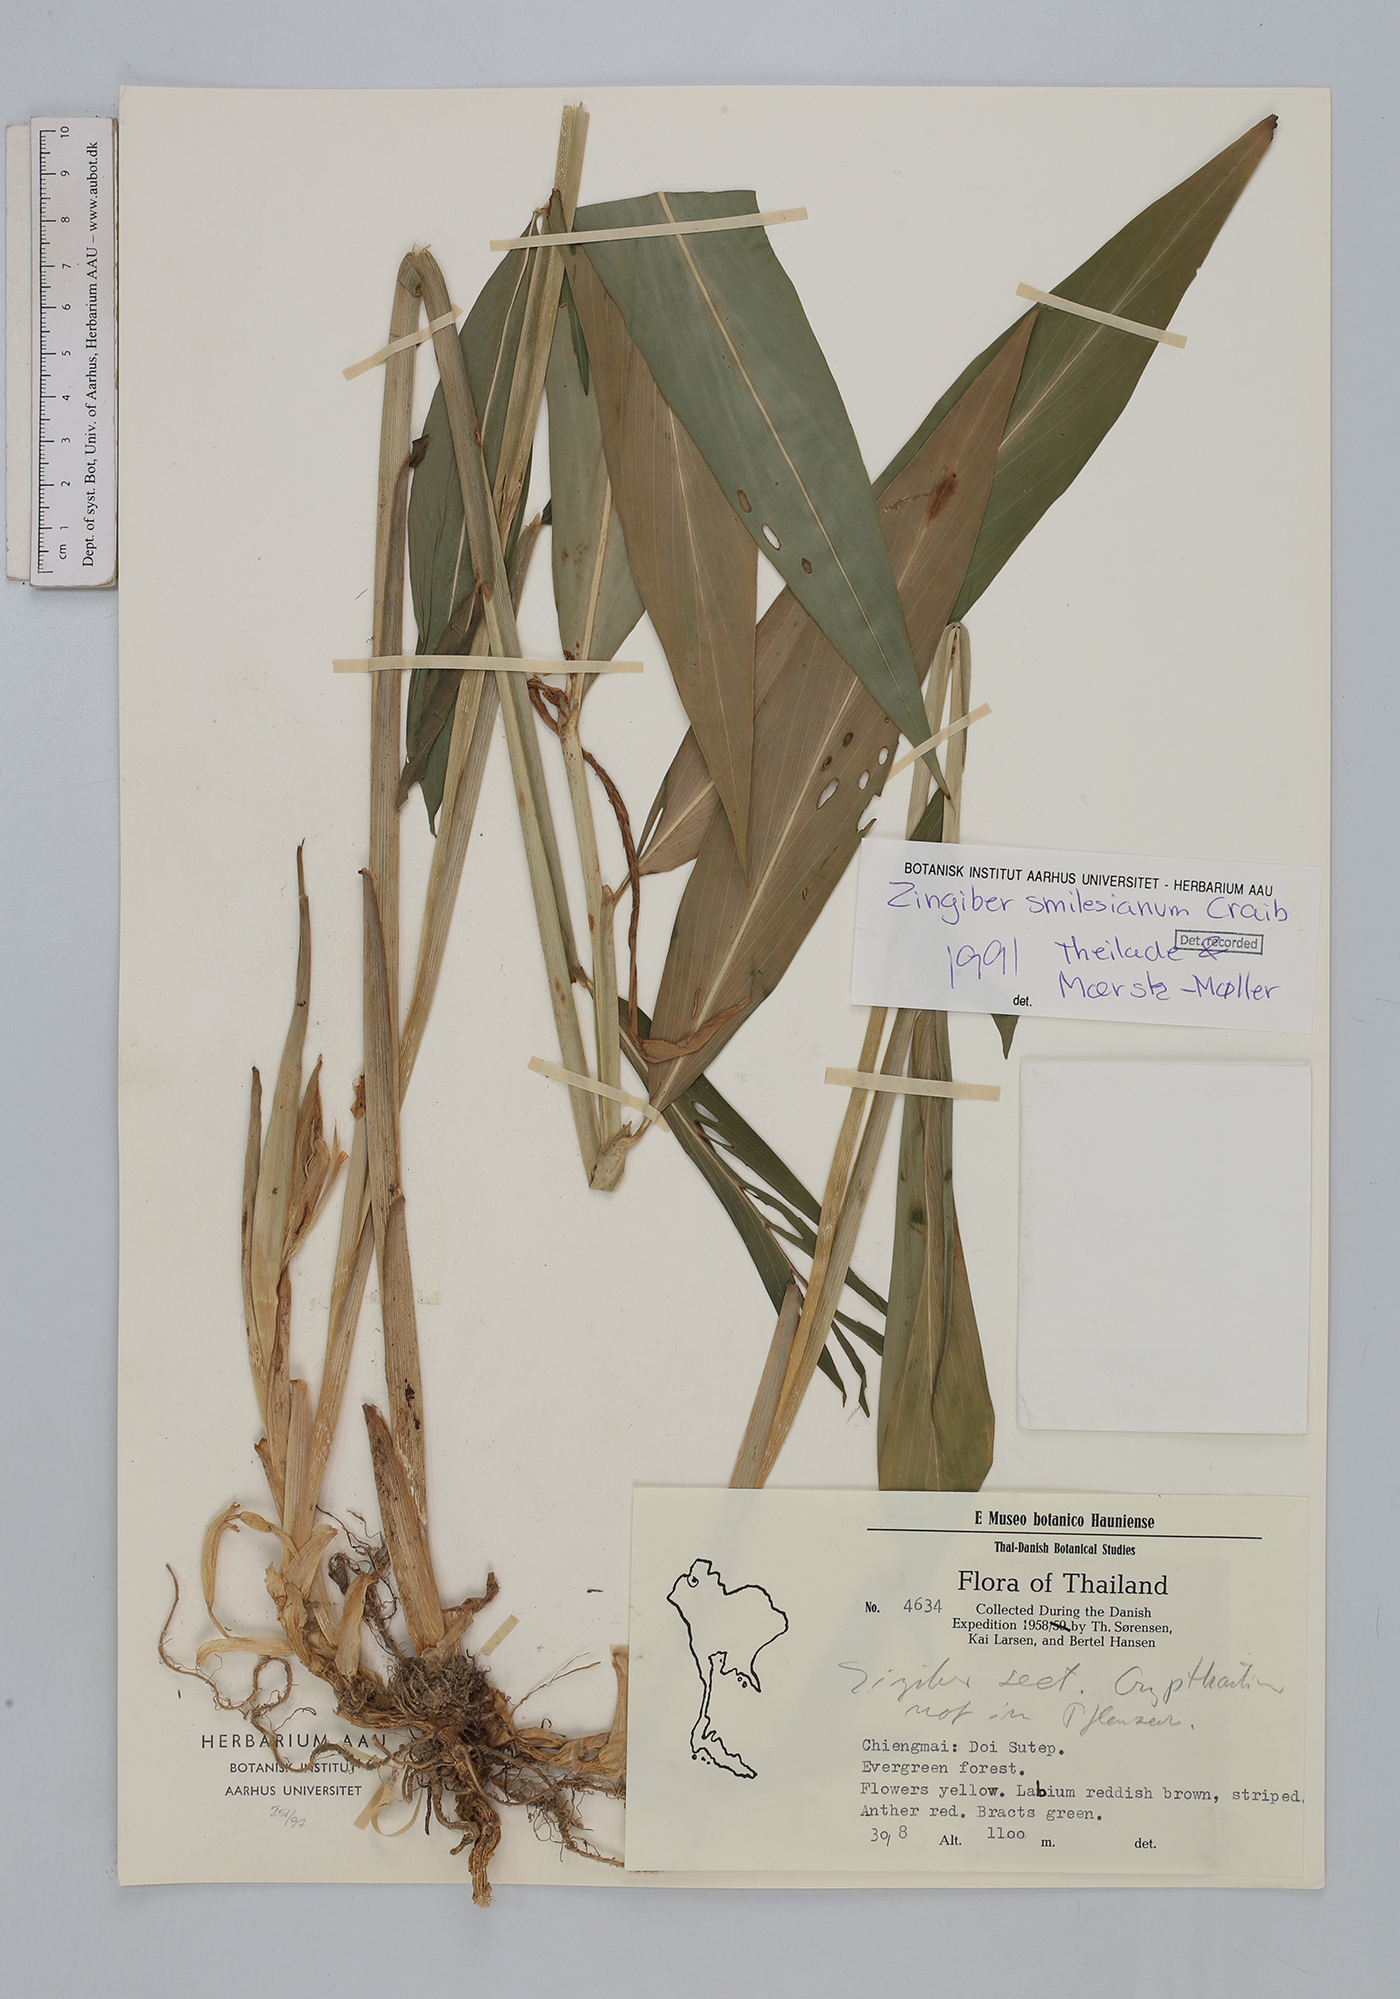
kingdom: Plantae
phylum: Tracheophyta
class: Liliopsida
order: Zingiberales
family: Zingiberaceae
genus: Zingiber
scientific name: Zingiber smilesianum
